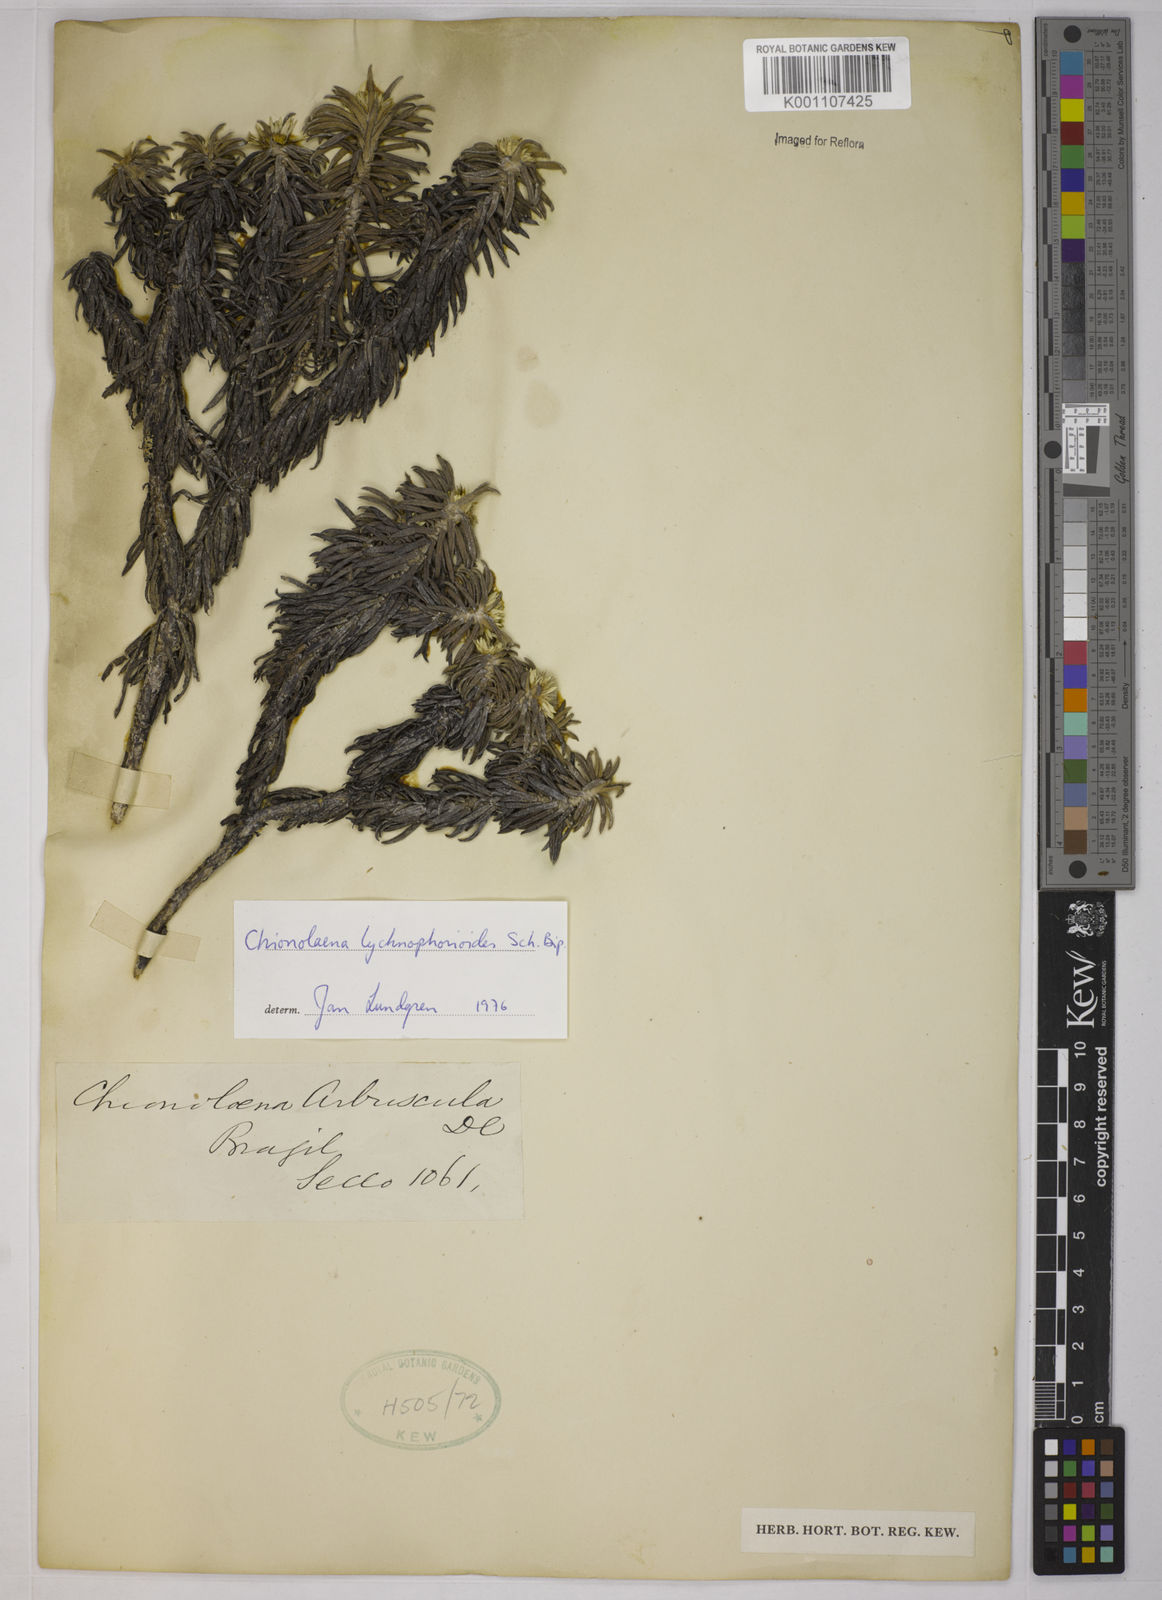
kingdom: Plantae
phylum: Tracheophyta
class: Magnoliopsida
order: Asterales
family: Asteraceae
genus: Chionolaena
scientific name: Chionolaena lychnophorioides
